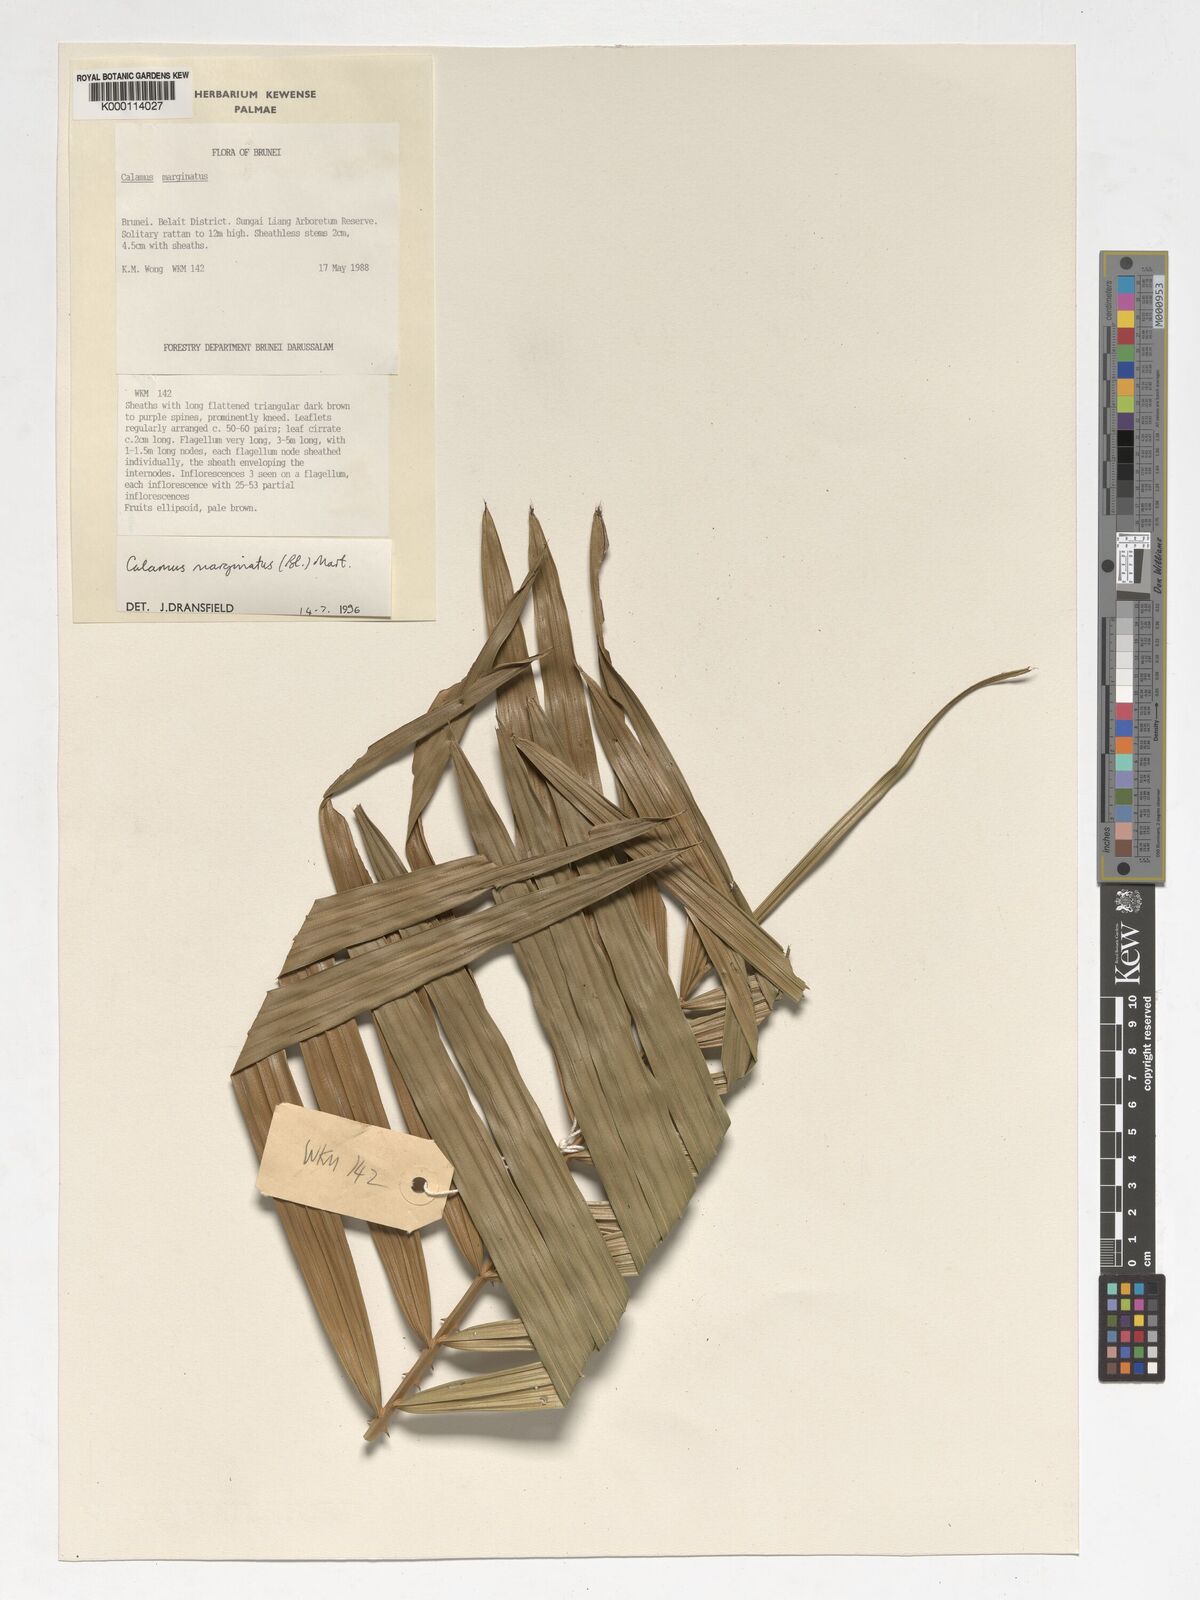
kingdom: Plantae
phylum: Tracheophyta
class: Liliopsida
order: Arecales
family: Arecaceae
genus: Calamus
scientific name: Calamus
